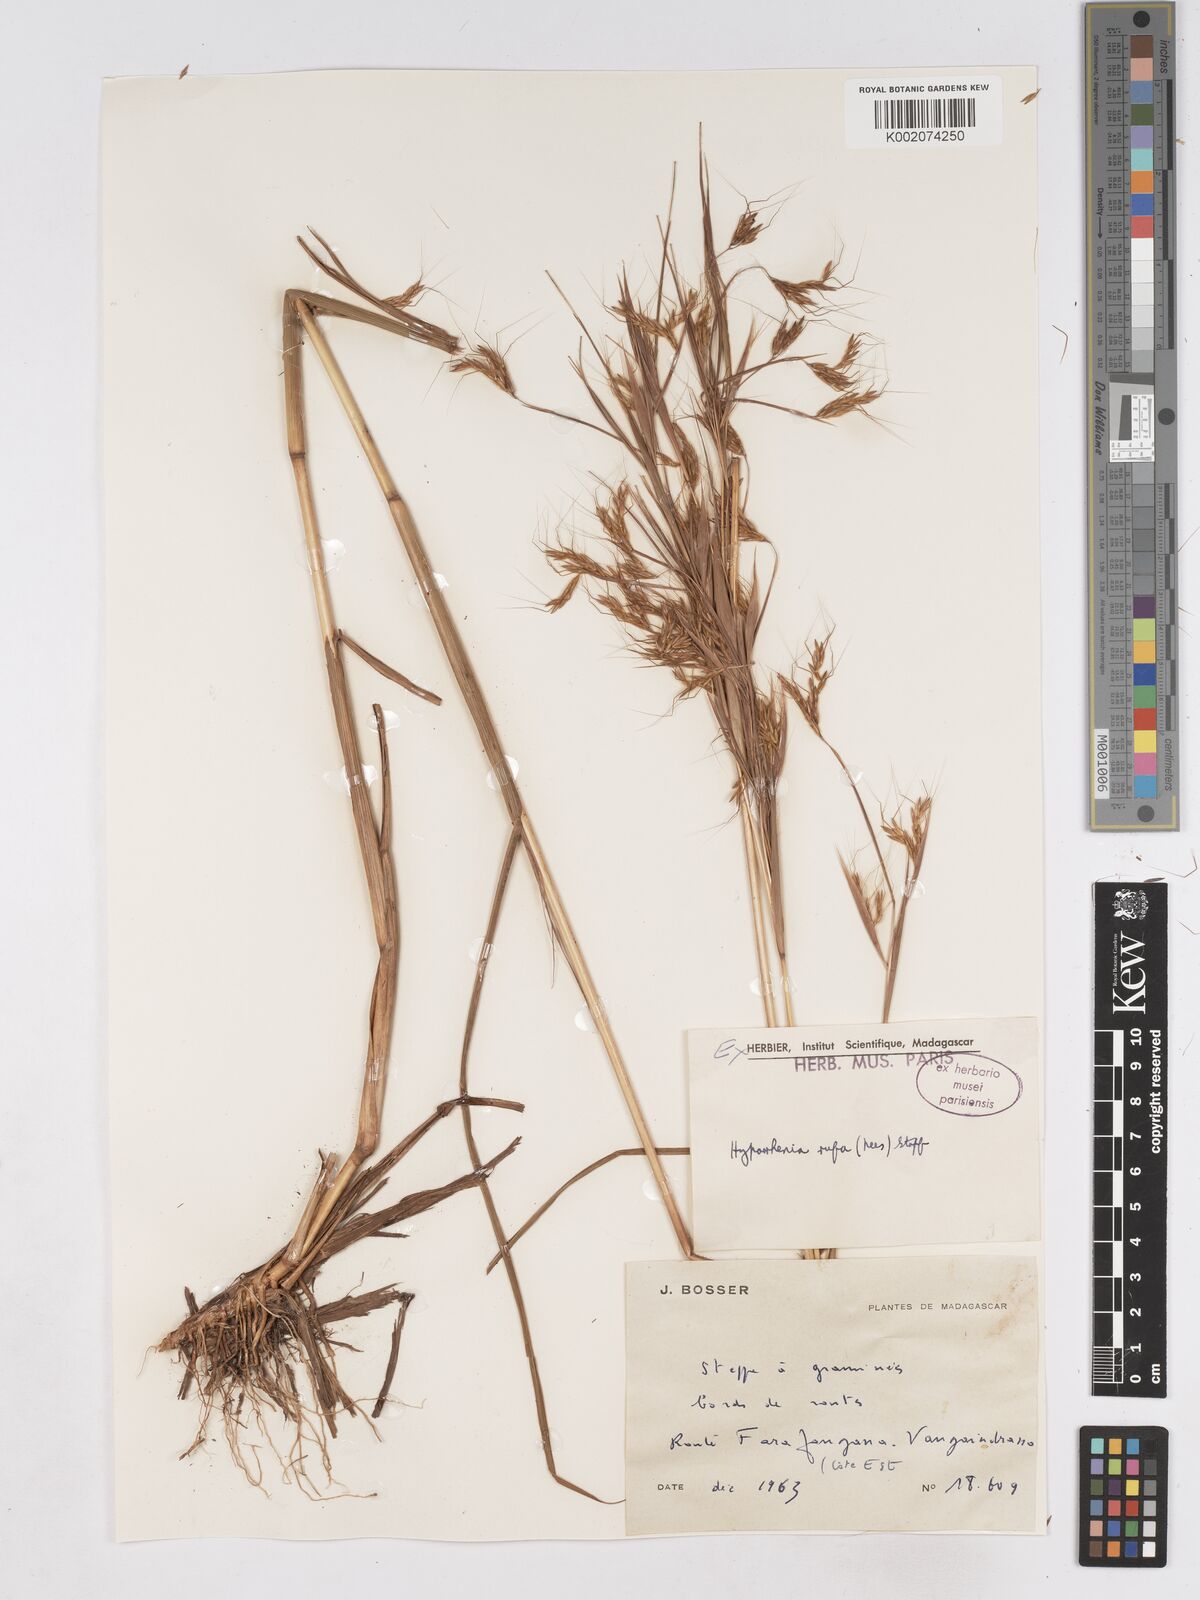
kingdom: Plantae
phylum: Tracheophyta
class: Liliopsida
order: Poales
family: Poaceae
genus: Hyparrhenia
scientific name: Hyparrhenia rufa
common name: Jaraguagrass
